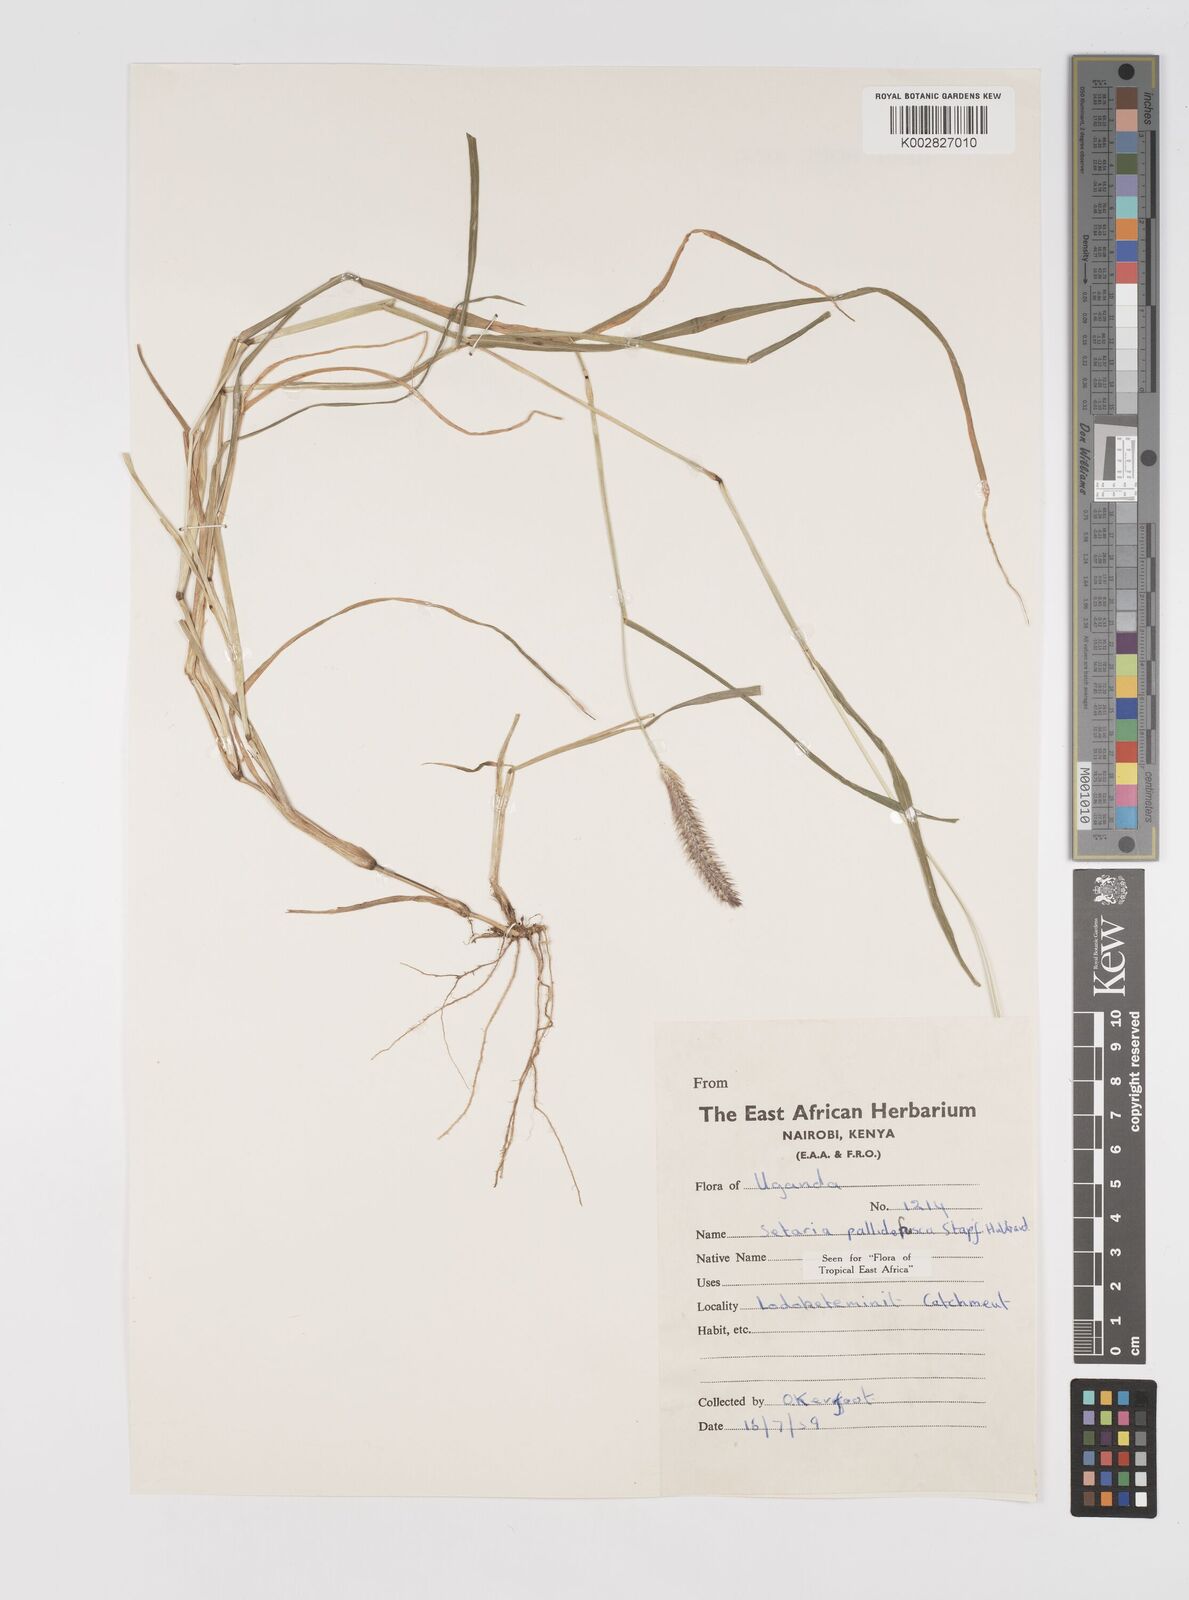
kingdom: Plantae
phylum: Tracheophyta
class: Liliopsida
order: Poales
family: Poaceae
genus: Setaria
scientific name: Setaria pumila
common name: Yellow bristle-grass
